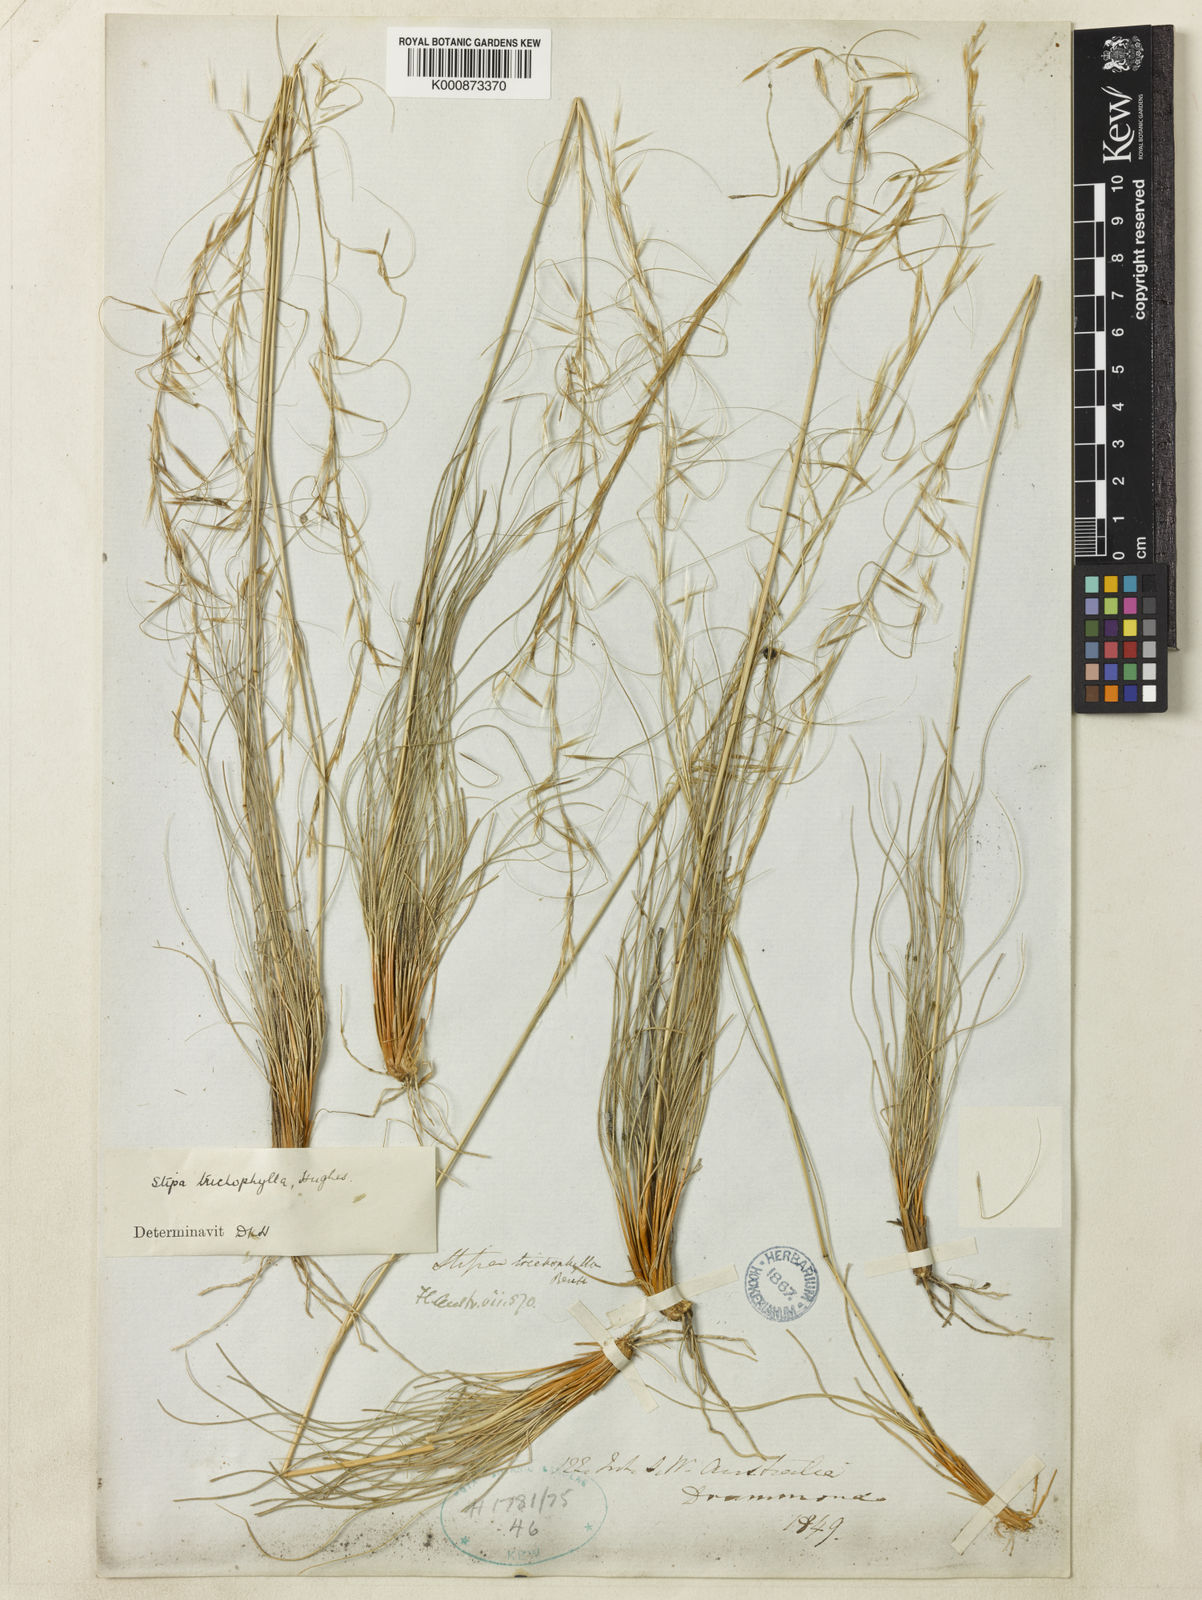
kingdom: Plantae
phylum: Tracheophyta
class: Liliopsida
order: Poales
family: Poaceae
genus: Austrostipa
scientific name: Austrostipa trichophylla
